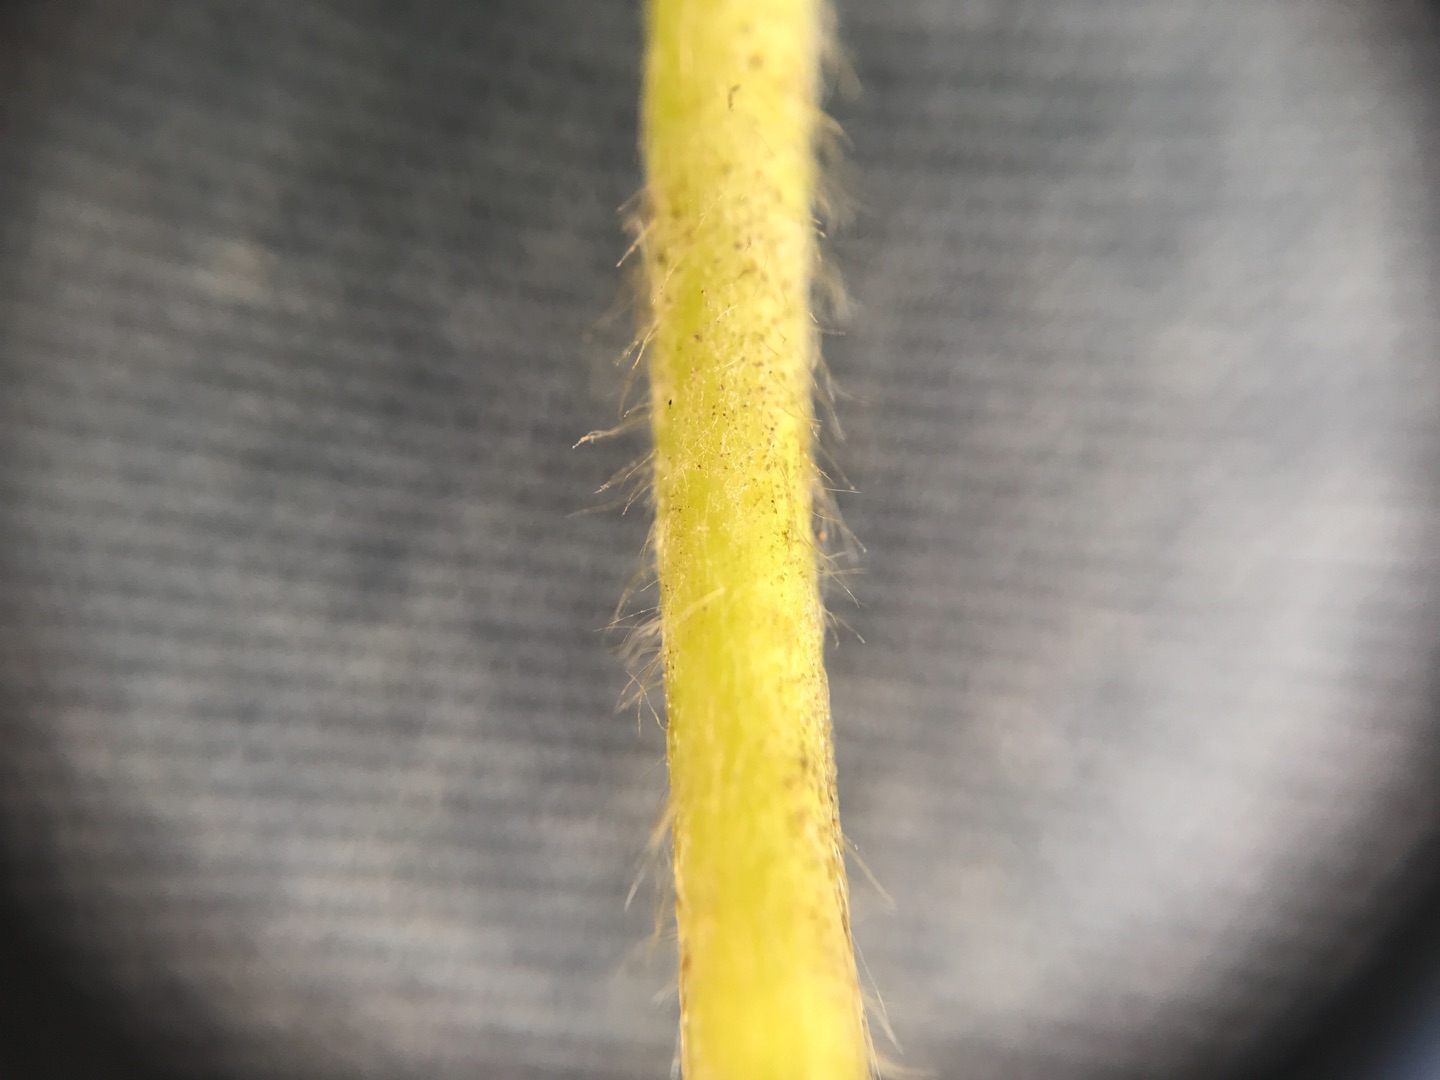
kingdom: Plantae
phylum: Tracheophyta
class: Magnoliopsida
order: Rosales
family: Rosaceae
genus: Alchemilla
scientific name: Alchemilla glaucescens
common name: Blågrøn løvefod
